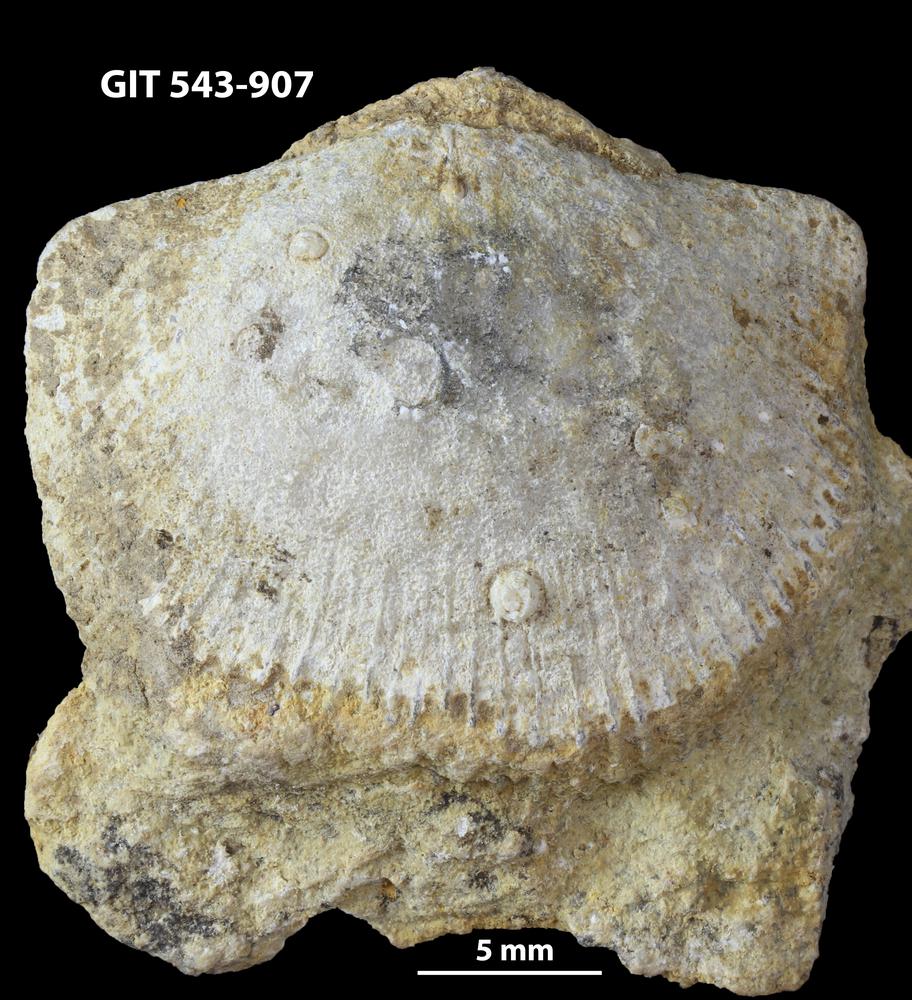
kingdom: Animalia
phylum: Brachiopoda
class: Rhynchonellata
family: Clitambonitidae
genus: Clitambonites
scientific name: Clitambonites
